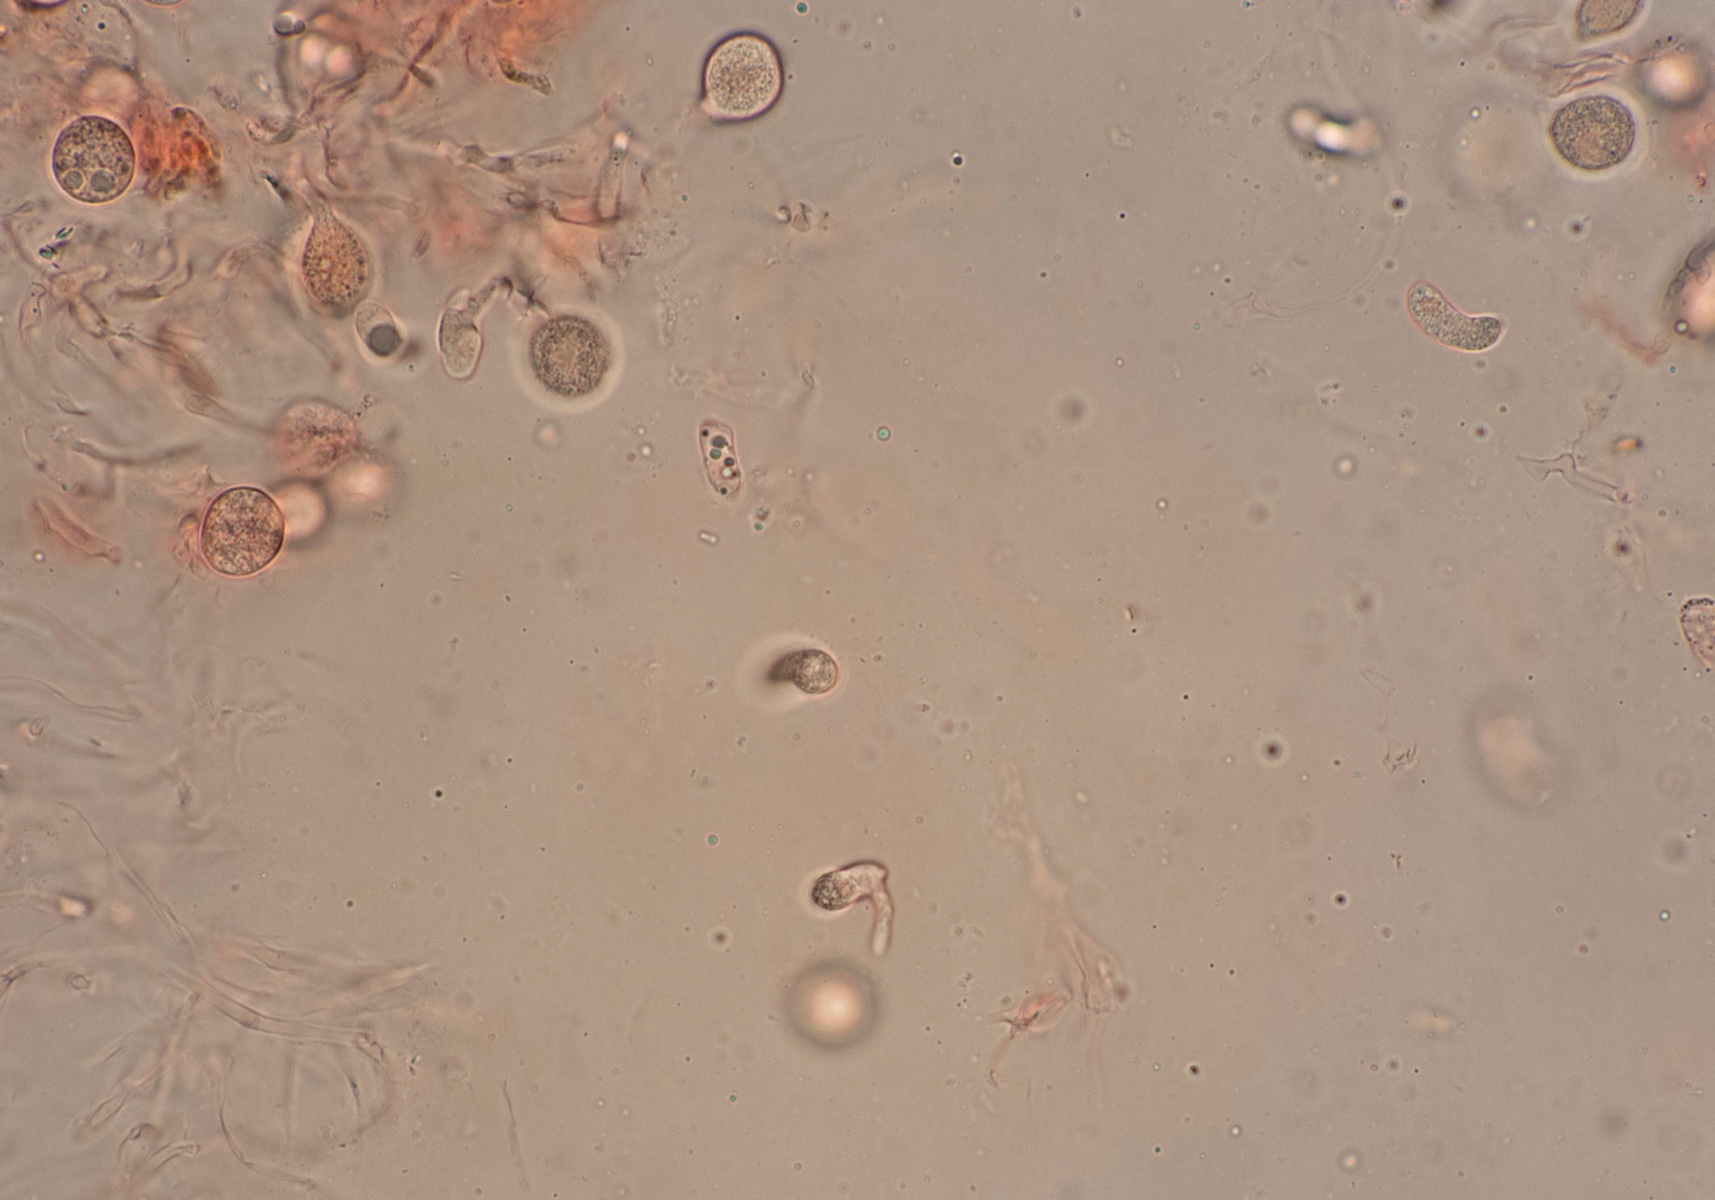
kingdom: Fungi
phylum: Basidiomycota
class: Agaricomycetes
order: Sebacinales
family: Sebacinaceae
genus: Sebacina
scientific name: Sebacina grisea
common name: blågrå bævrehinde
